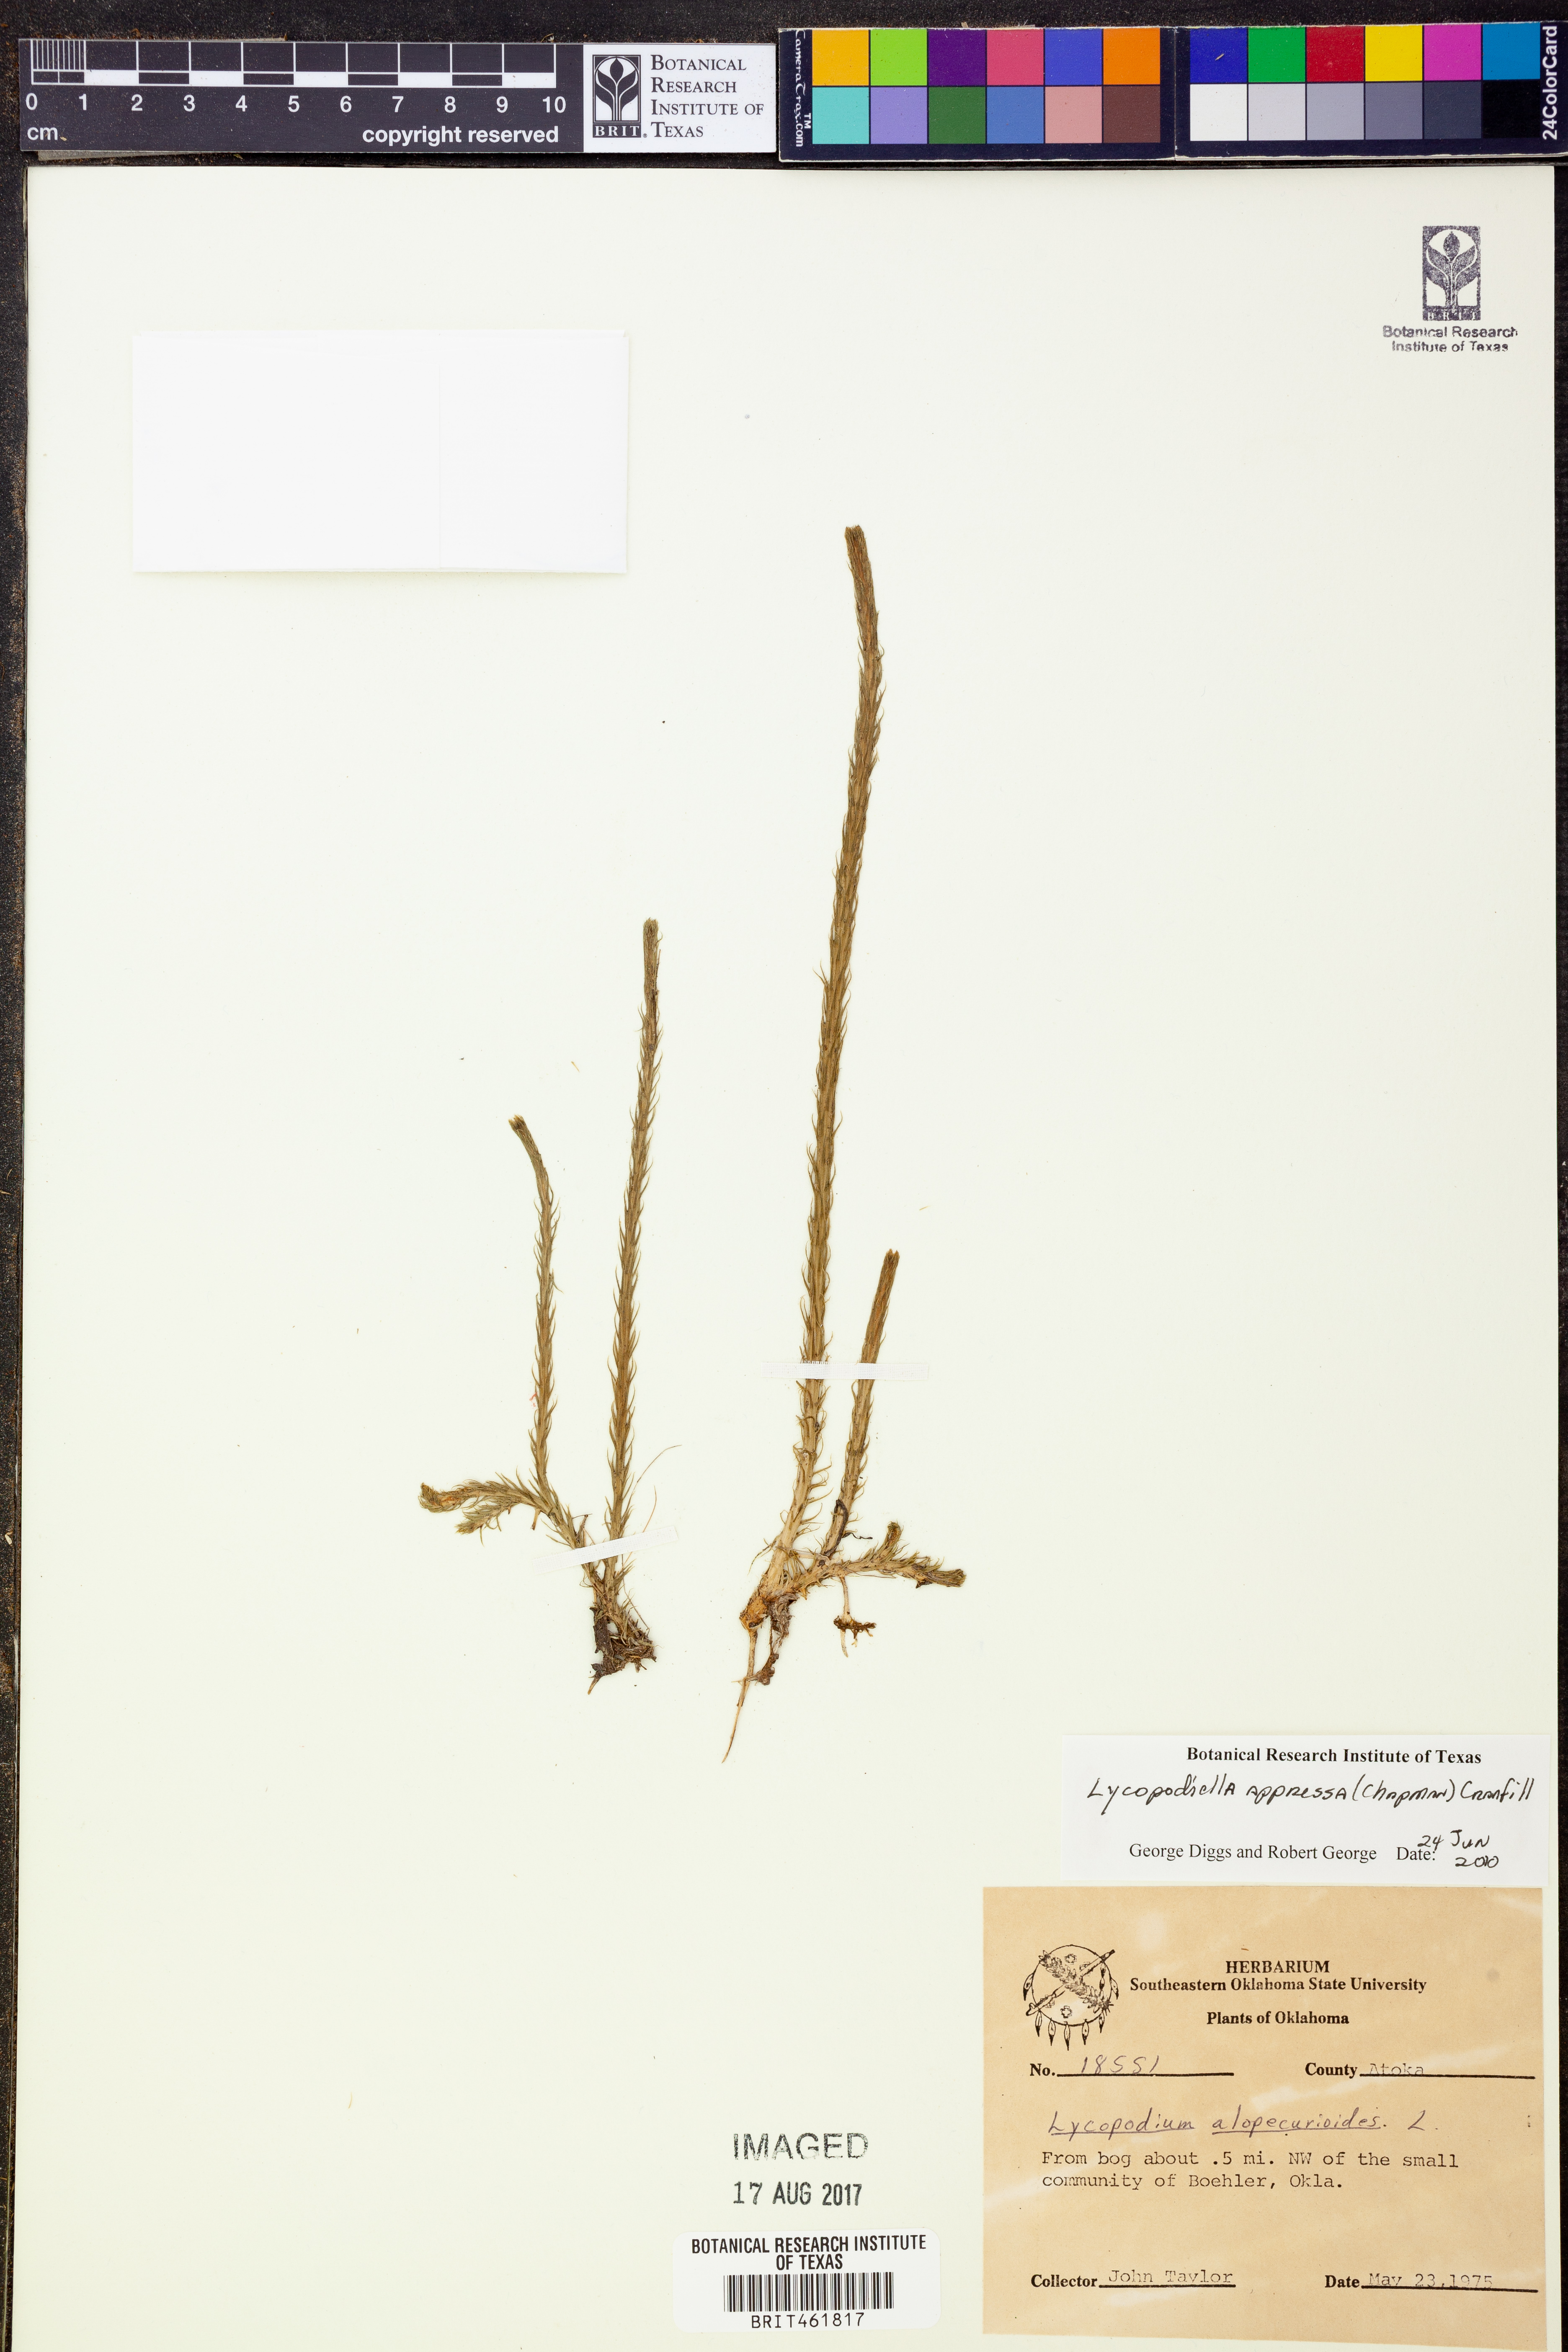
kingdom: Plantae
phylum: Tracheophyta
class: Lycopodiopsida
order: Lycopodiales
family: Lycopodiaceae
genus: Lycopodiella
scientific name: Lycopodiella appressa
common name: Appressed bog clubmoss
